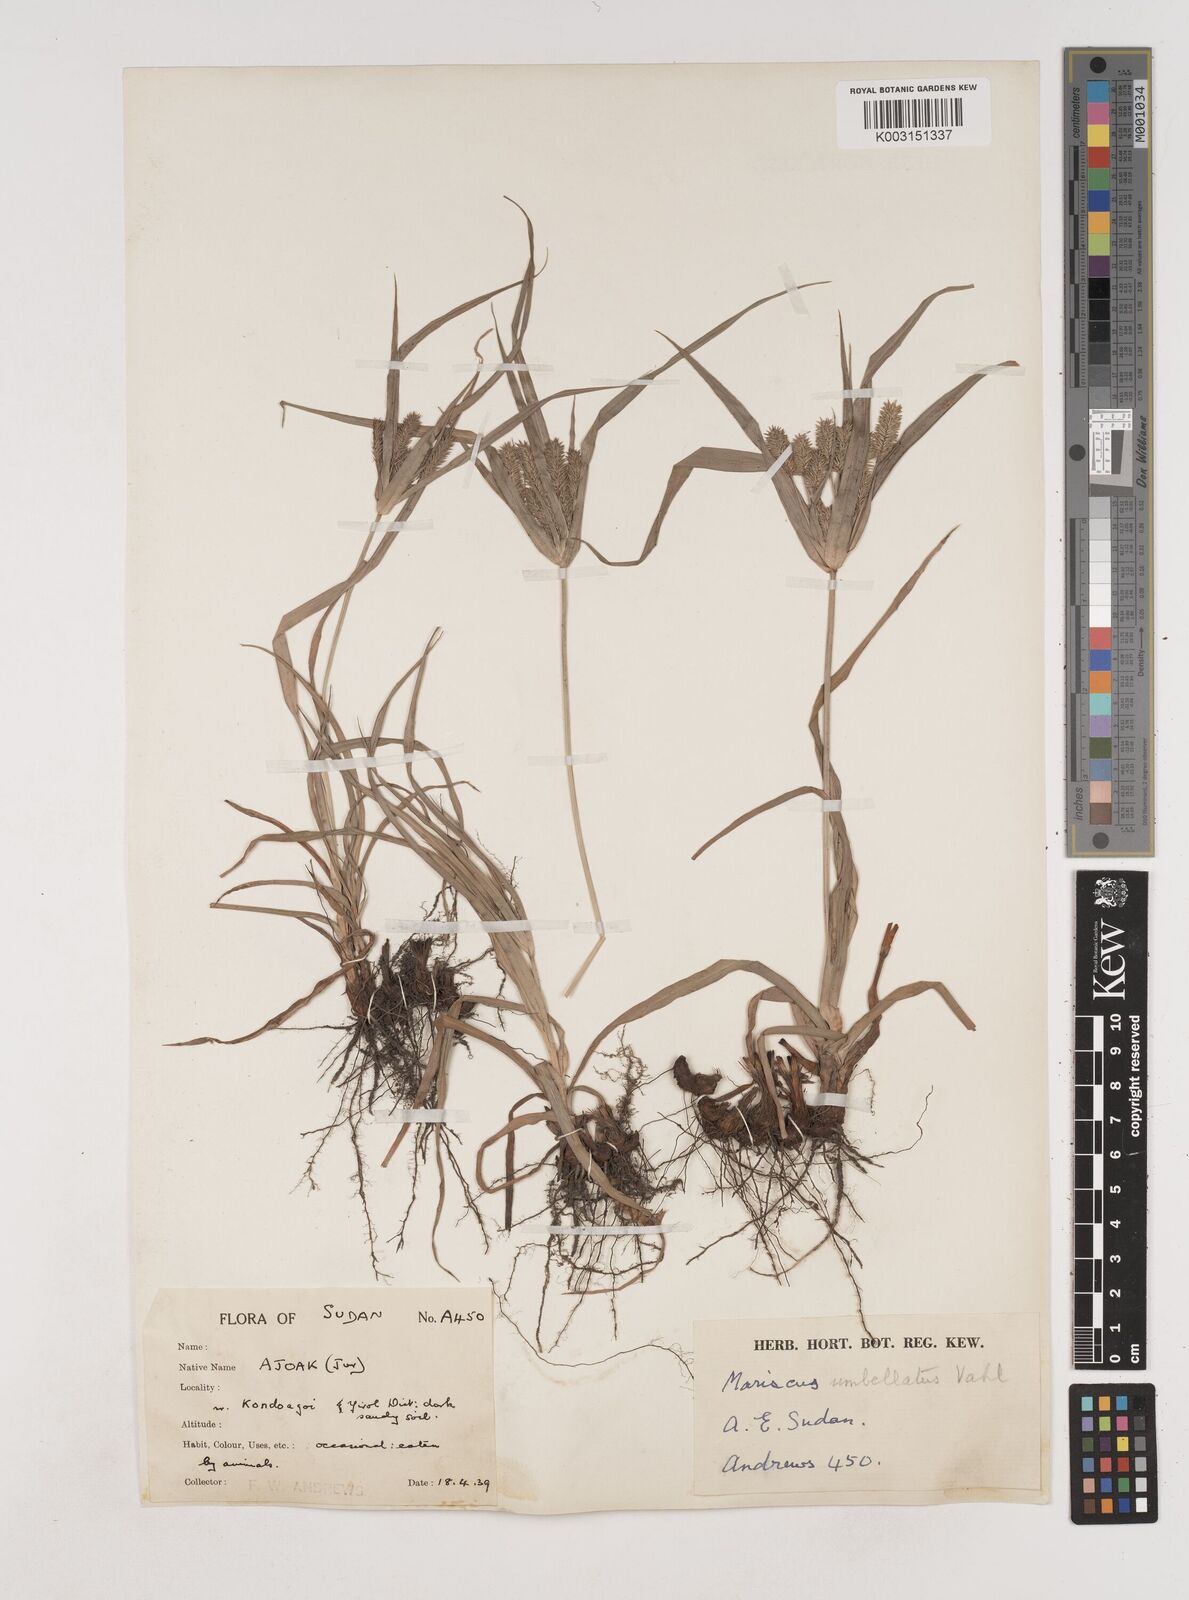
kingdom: Plantae
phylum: Tracheophyta
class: Liliopsida
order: Poales
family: Cyperaceae
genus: Cyperus
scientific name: Cyperus cyperoides
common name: Pacific island flat sedge
